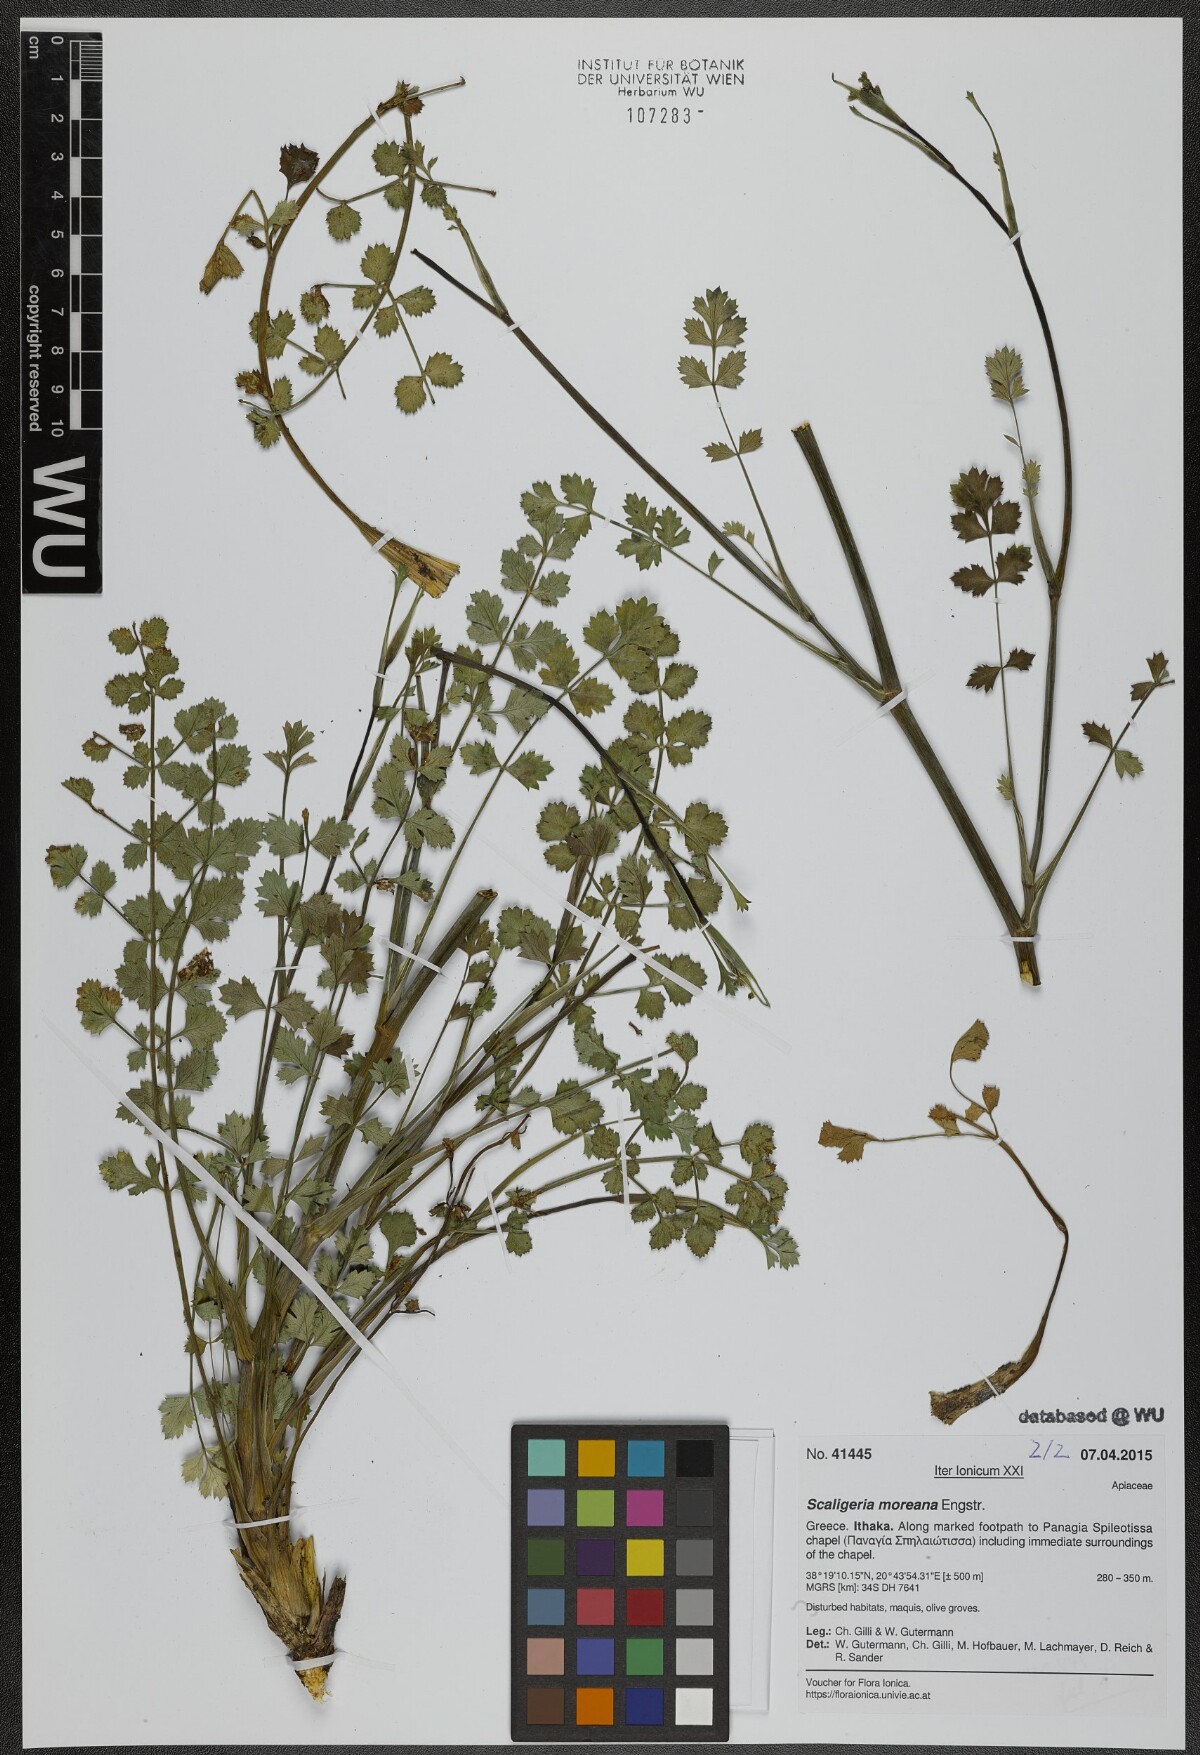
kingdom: Plantae
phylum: Tracheophyta
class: Magnoliopsida
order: Apiales
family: Apiaceae
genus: Scaligeria
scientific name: Scaligeria moreana
